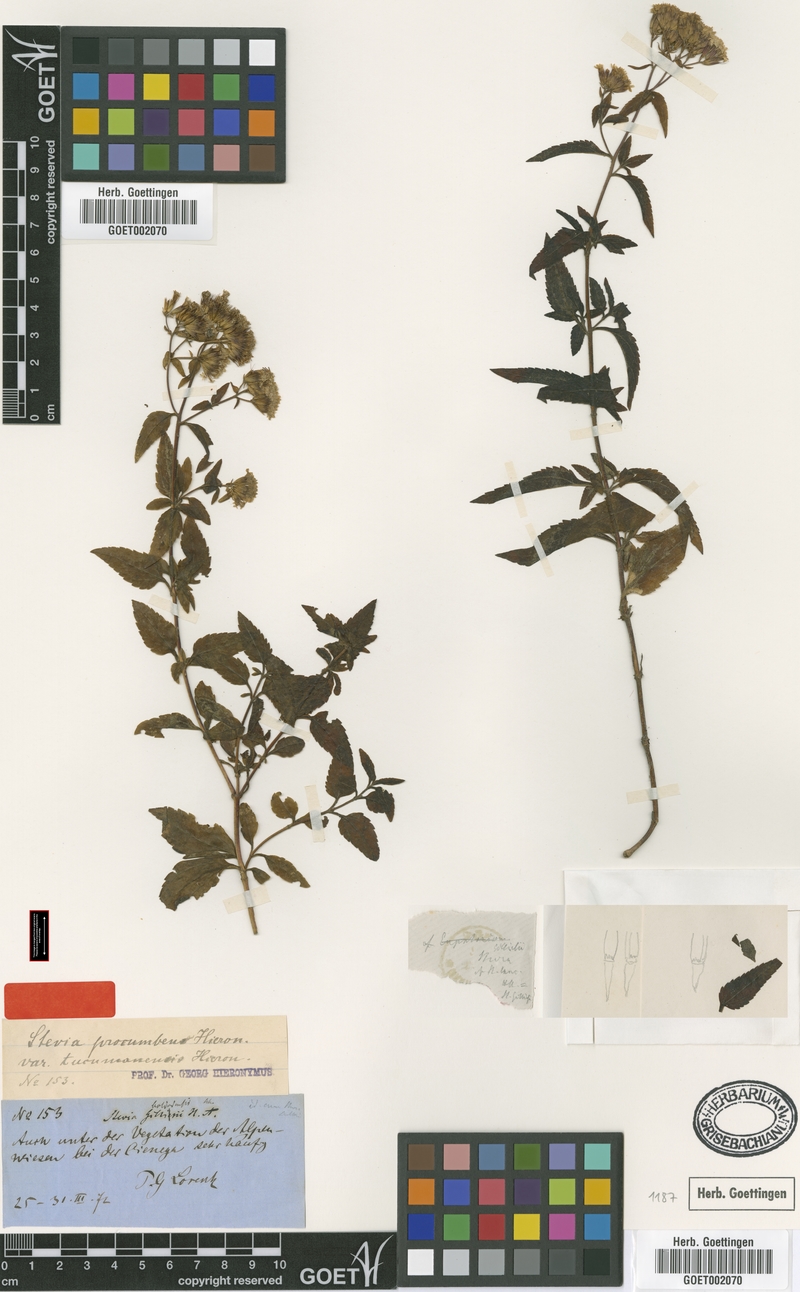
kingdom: Plantae
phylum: Tracheophyta
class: Magnoliopsida
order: Asterales
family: Asteraceae
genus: Stevia
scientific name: Stevia vaga
